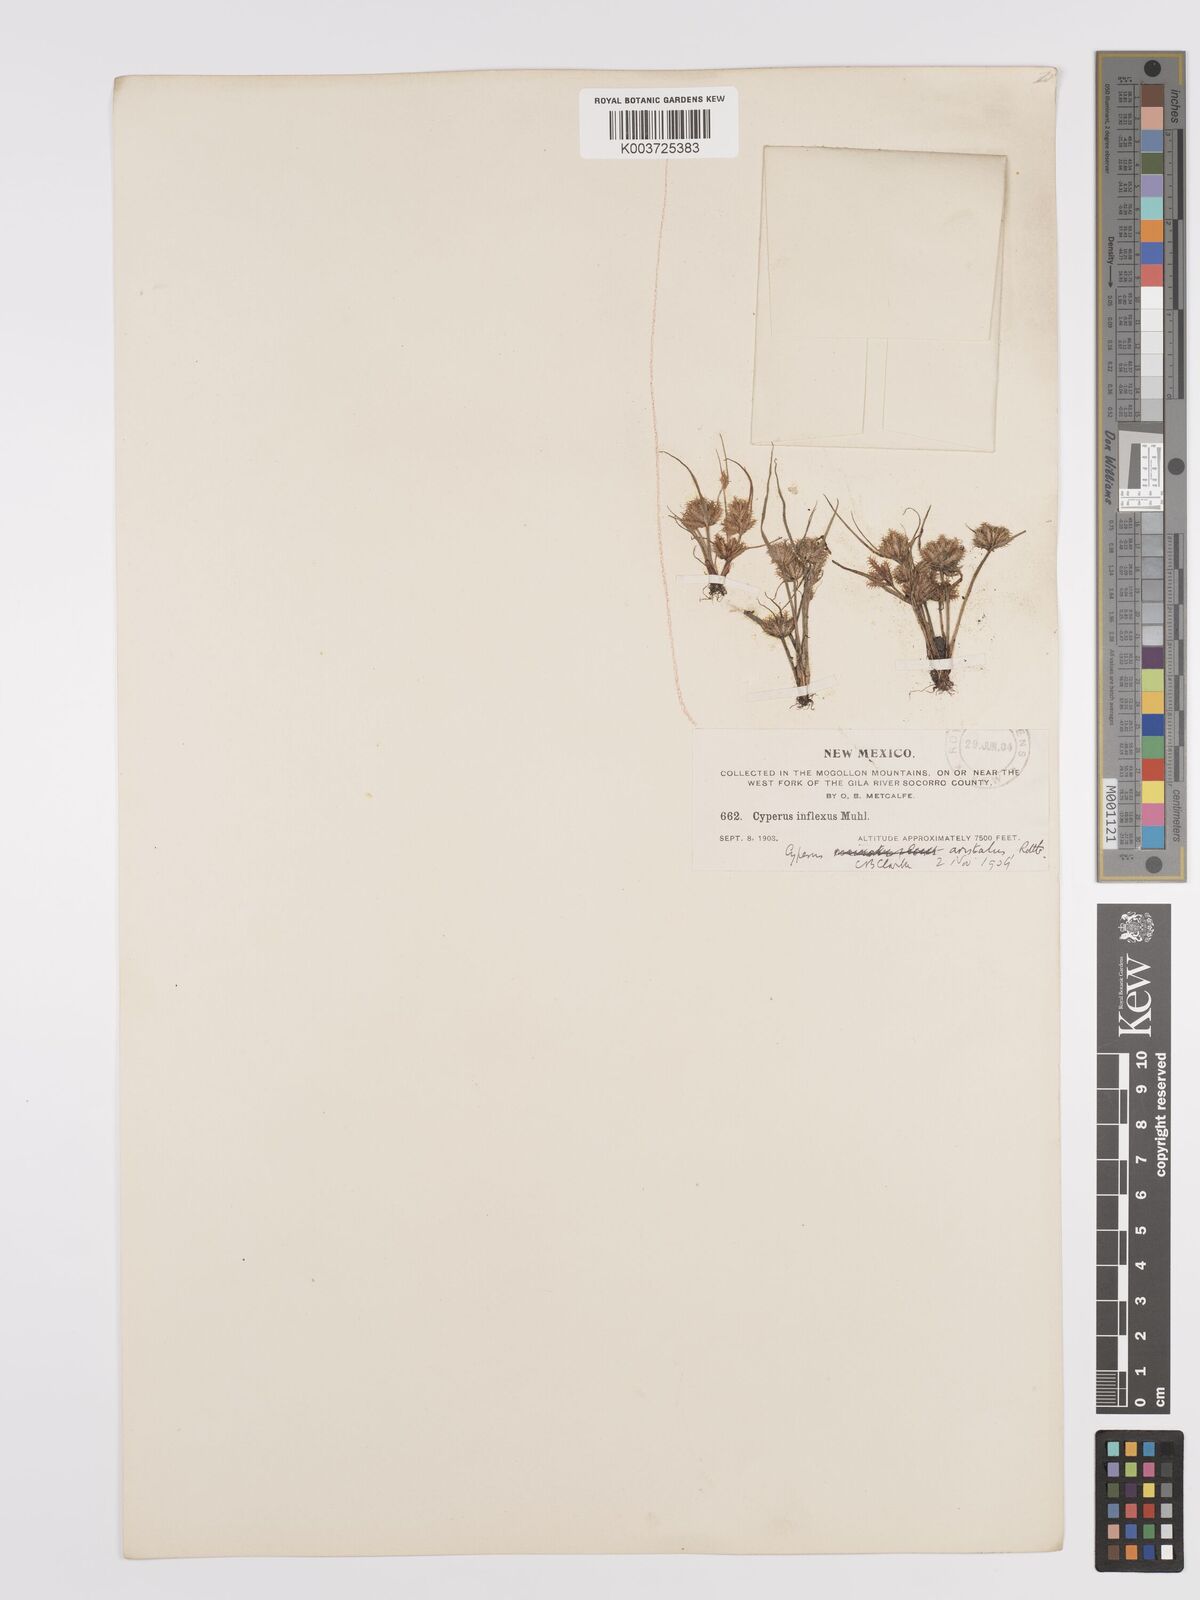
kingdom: Plantae
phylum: Tracheophyta
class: Liliopsida
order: Poales
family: Cyperaceae
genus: Cyperus
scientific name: Cyperus squarrosus
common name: Awned cyperus
